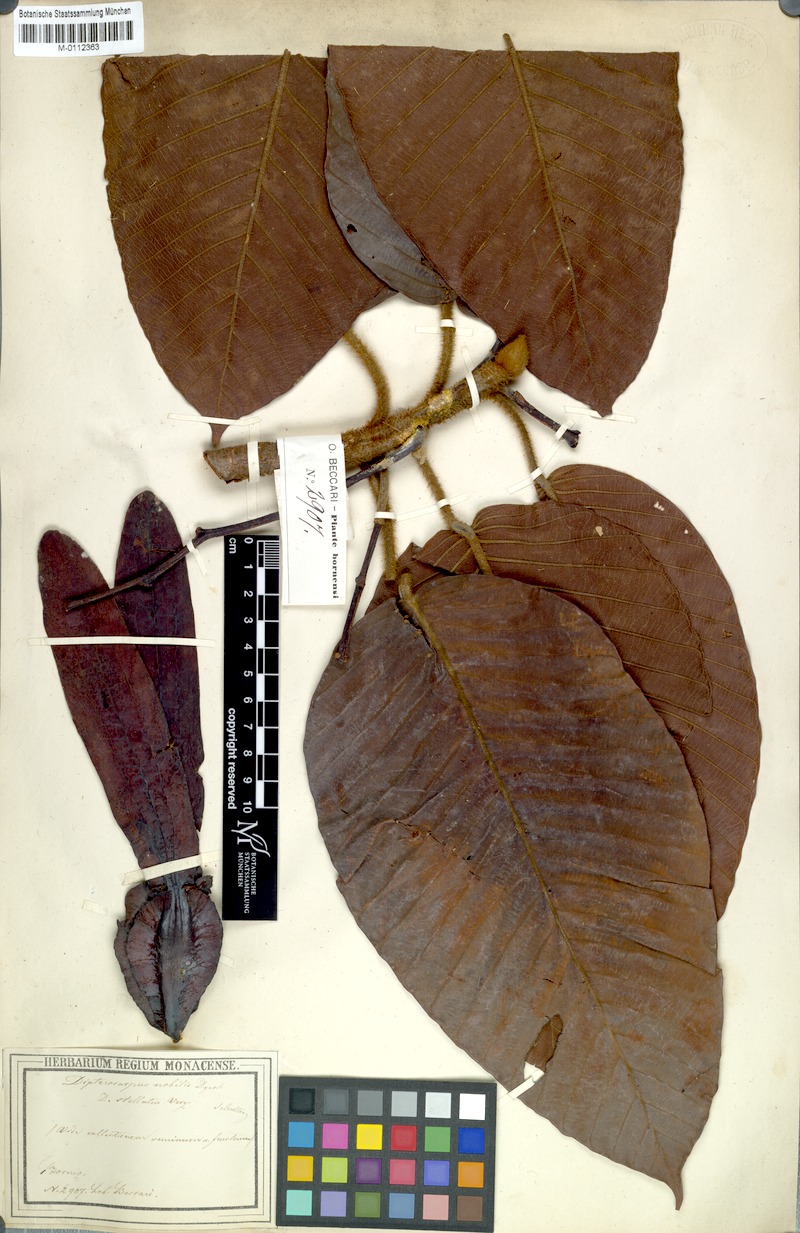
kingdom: Plantae
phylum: Tracheophyta
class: Magnoliopsida
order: Malvales
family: Dipterocarpaceae
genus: Dipterocarpus
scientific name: Dipterocarpus stellatus
